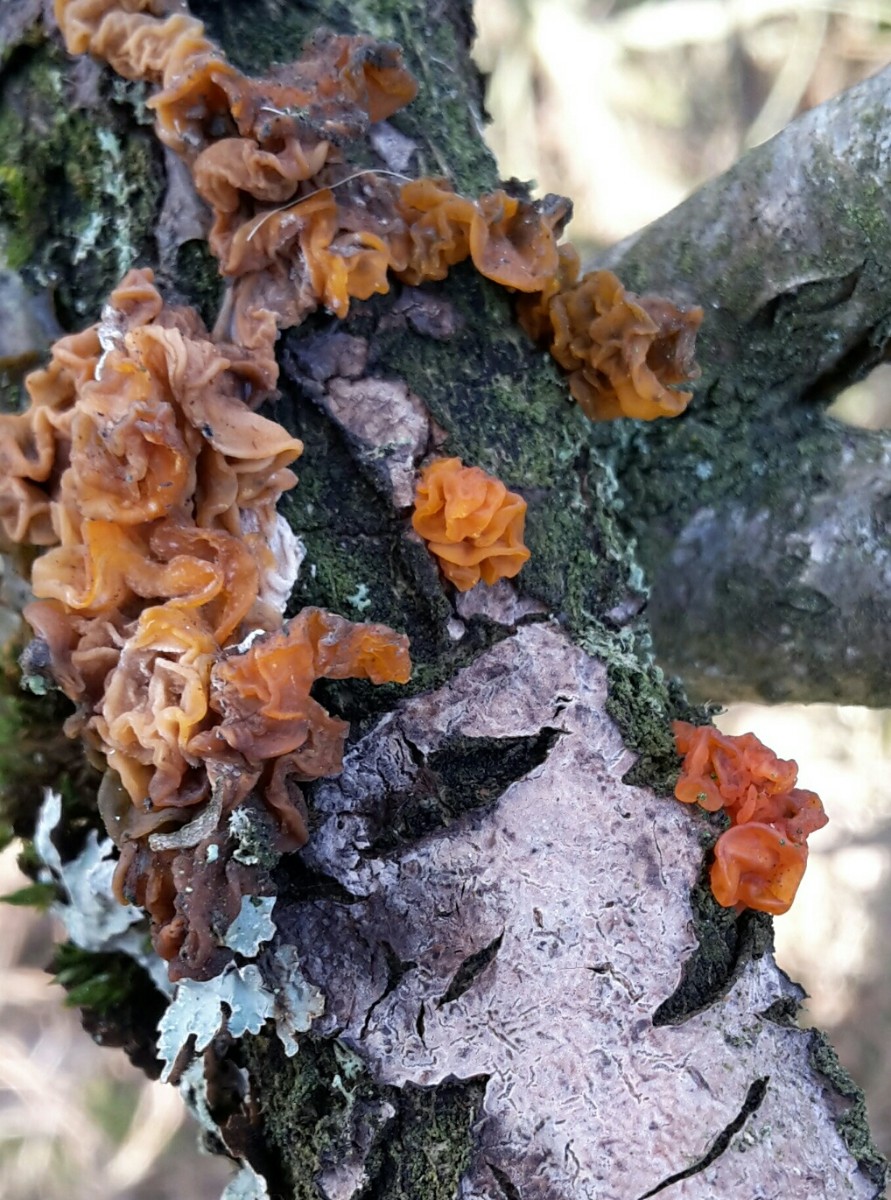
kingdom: Fungi
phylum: Basidiomycota
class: Tremellomycetes
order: Tremellales
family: Tremellaceae
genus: Tremella
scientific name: Tremella mesenterica
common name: gul bævresvamp
